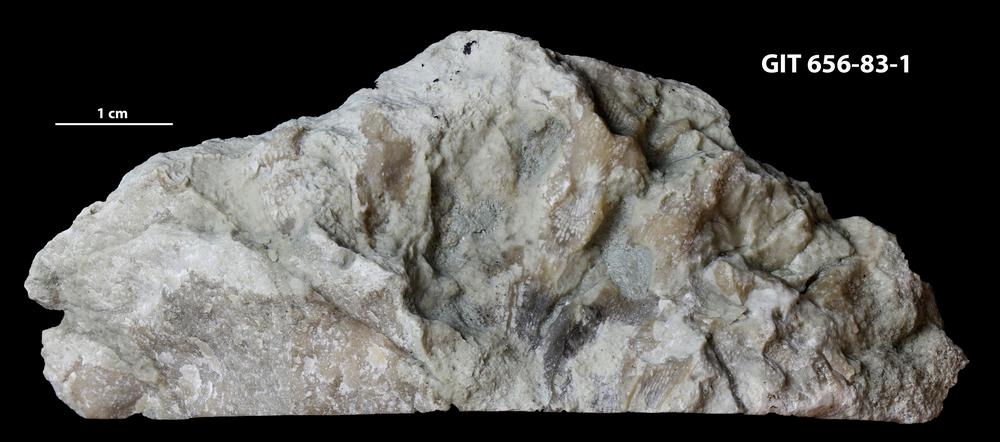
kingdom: Animalia
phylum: Porifera
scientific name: Porifera
